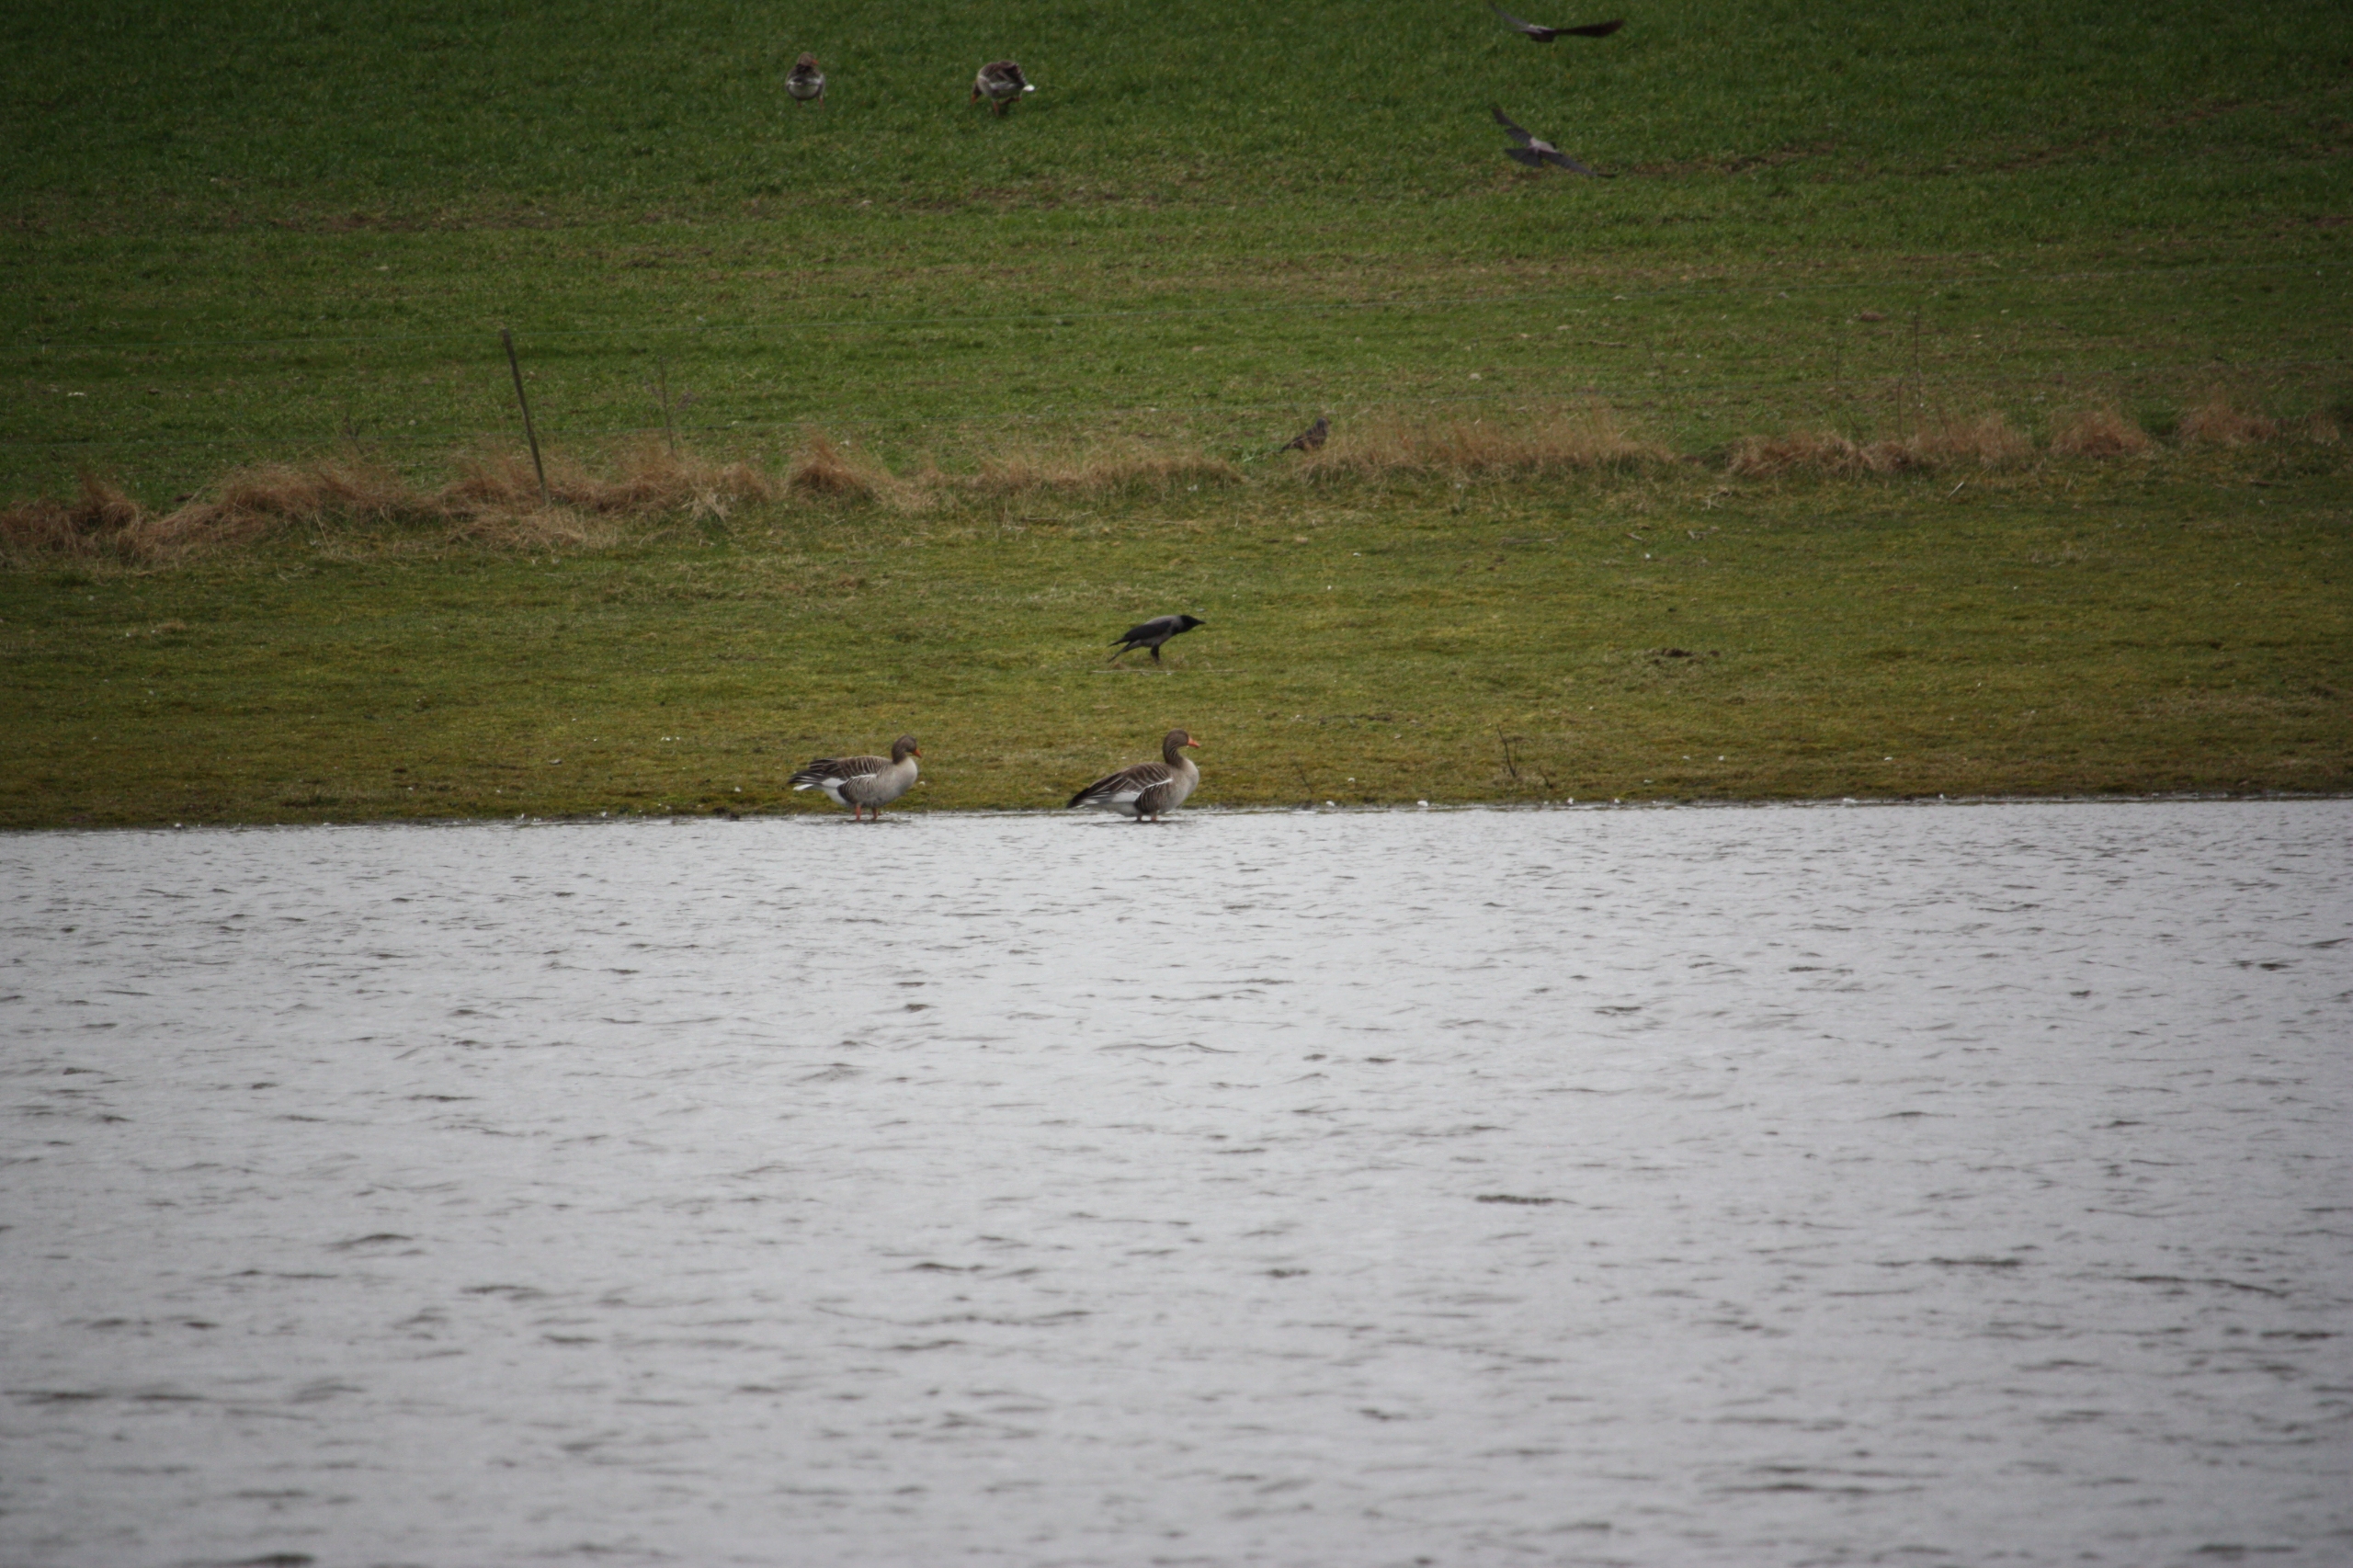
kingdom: Animalia
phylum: Chordata
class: Aves
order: Anseriformes
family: Anatidae
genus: Anser
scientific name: Anser anser
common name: Grågås
